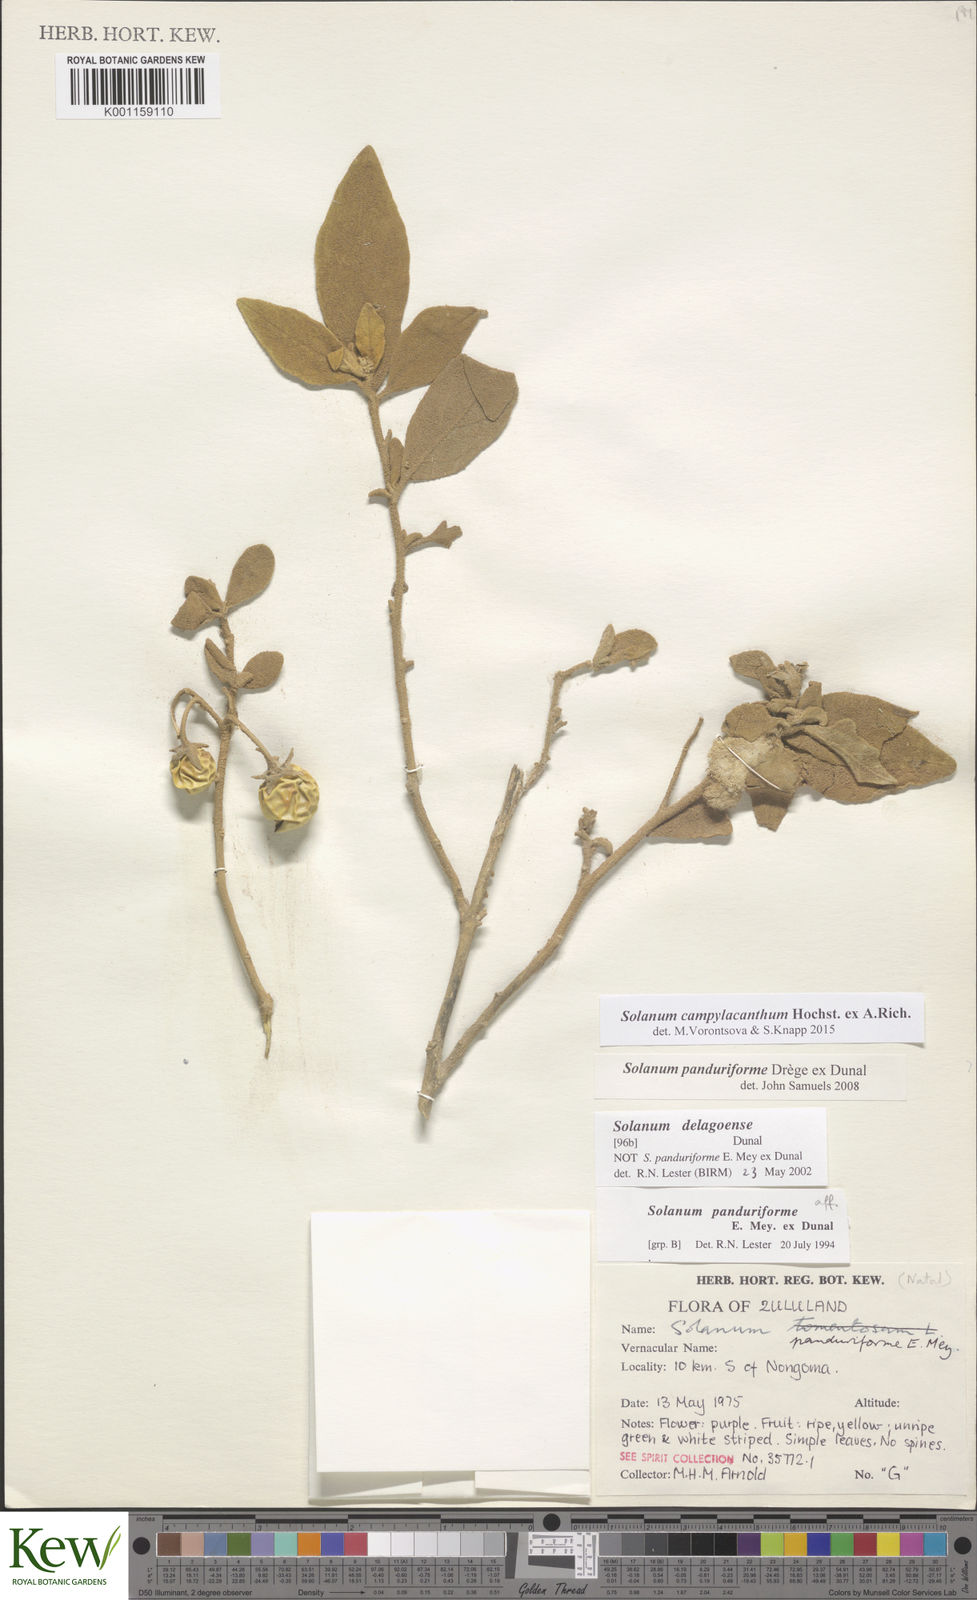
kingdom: Plantae
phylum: Tracheophyta
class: Magnoliopsida
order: Solanales
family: Solanaceae
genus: Solanum
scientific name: Solanum campylacanthum
